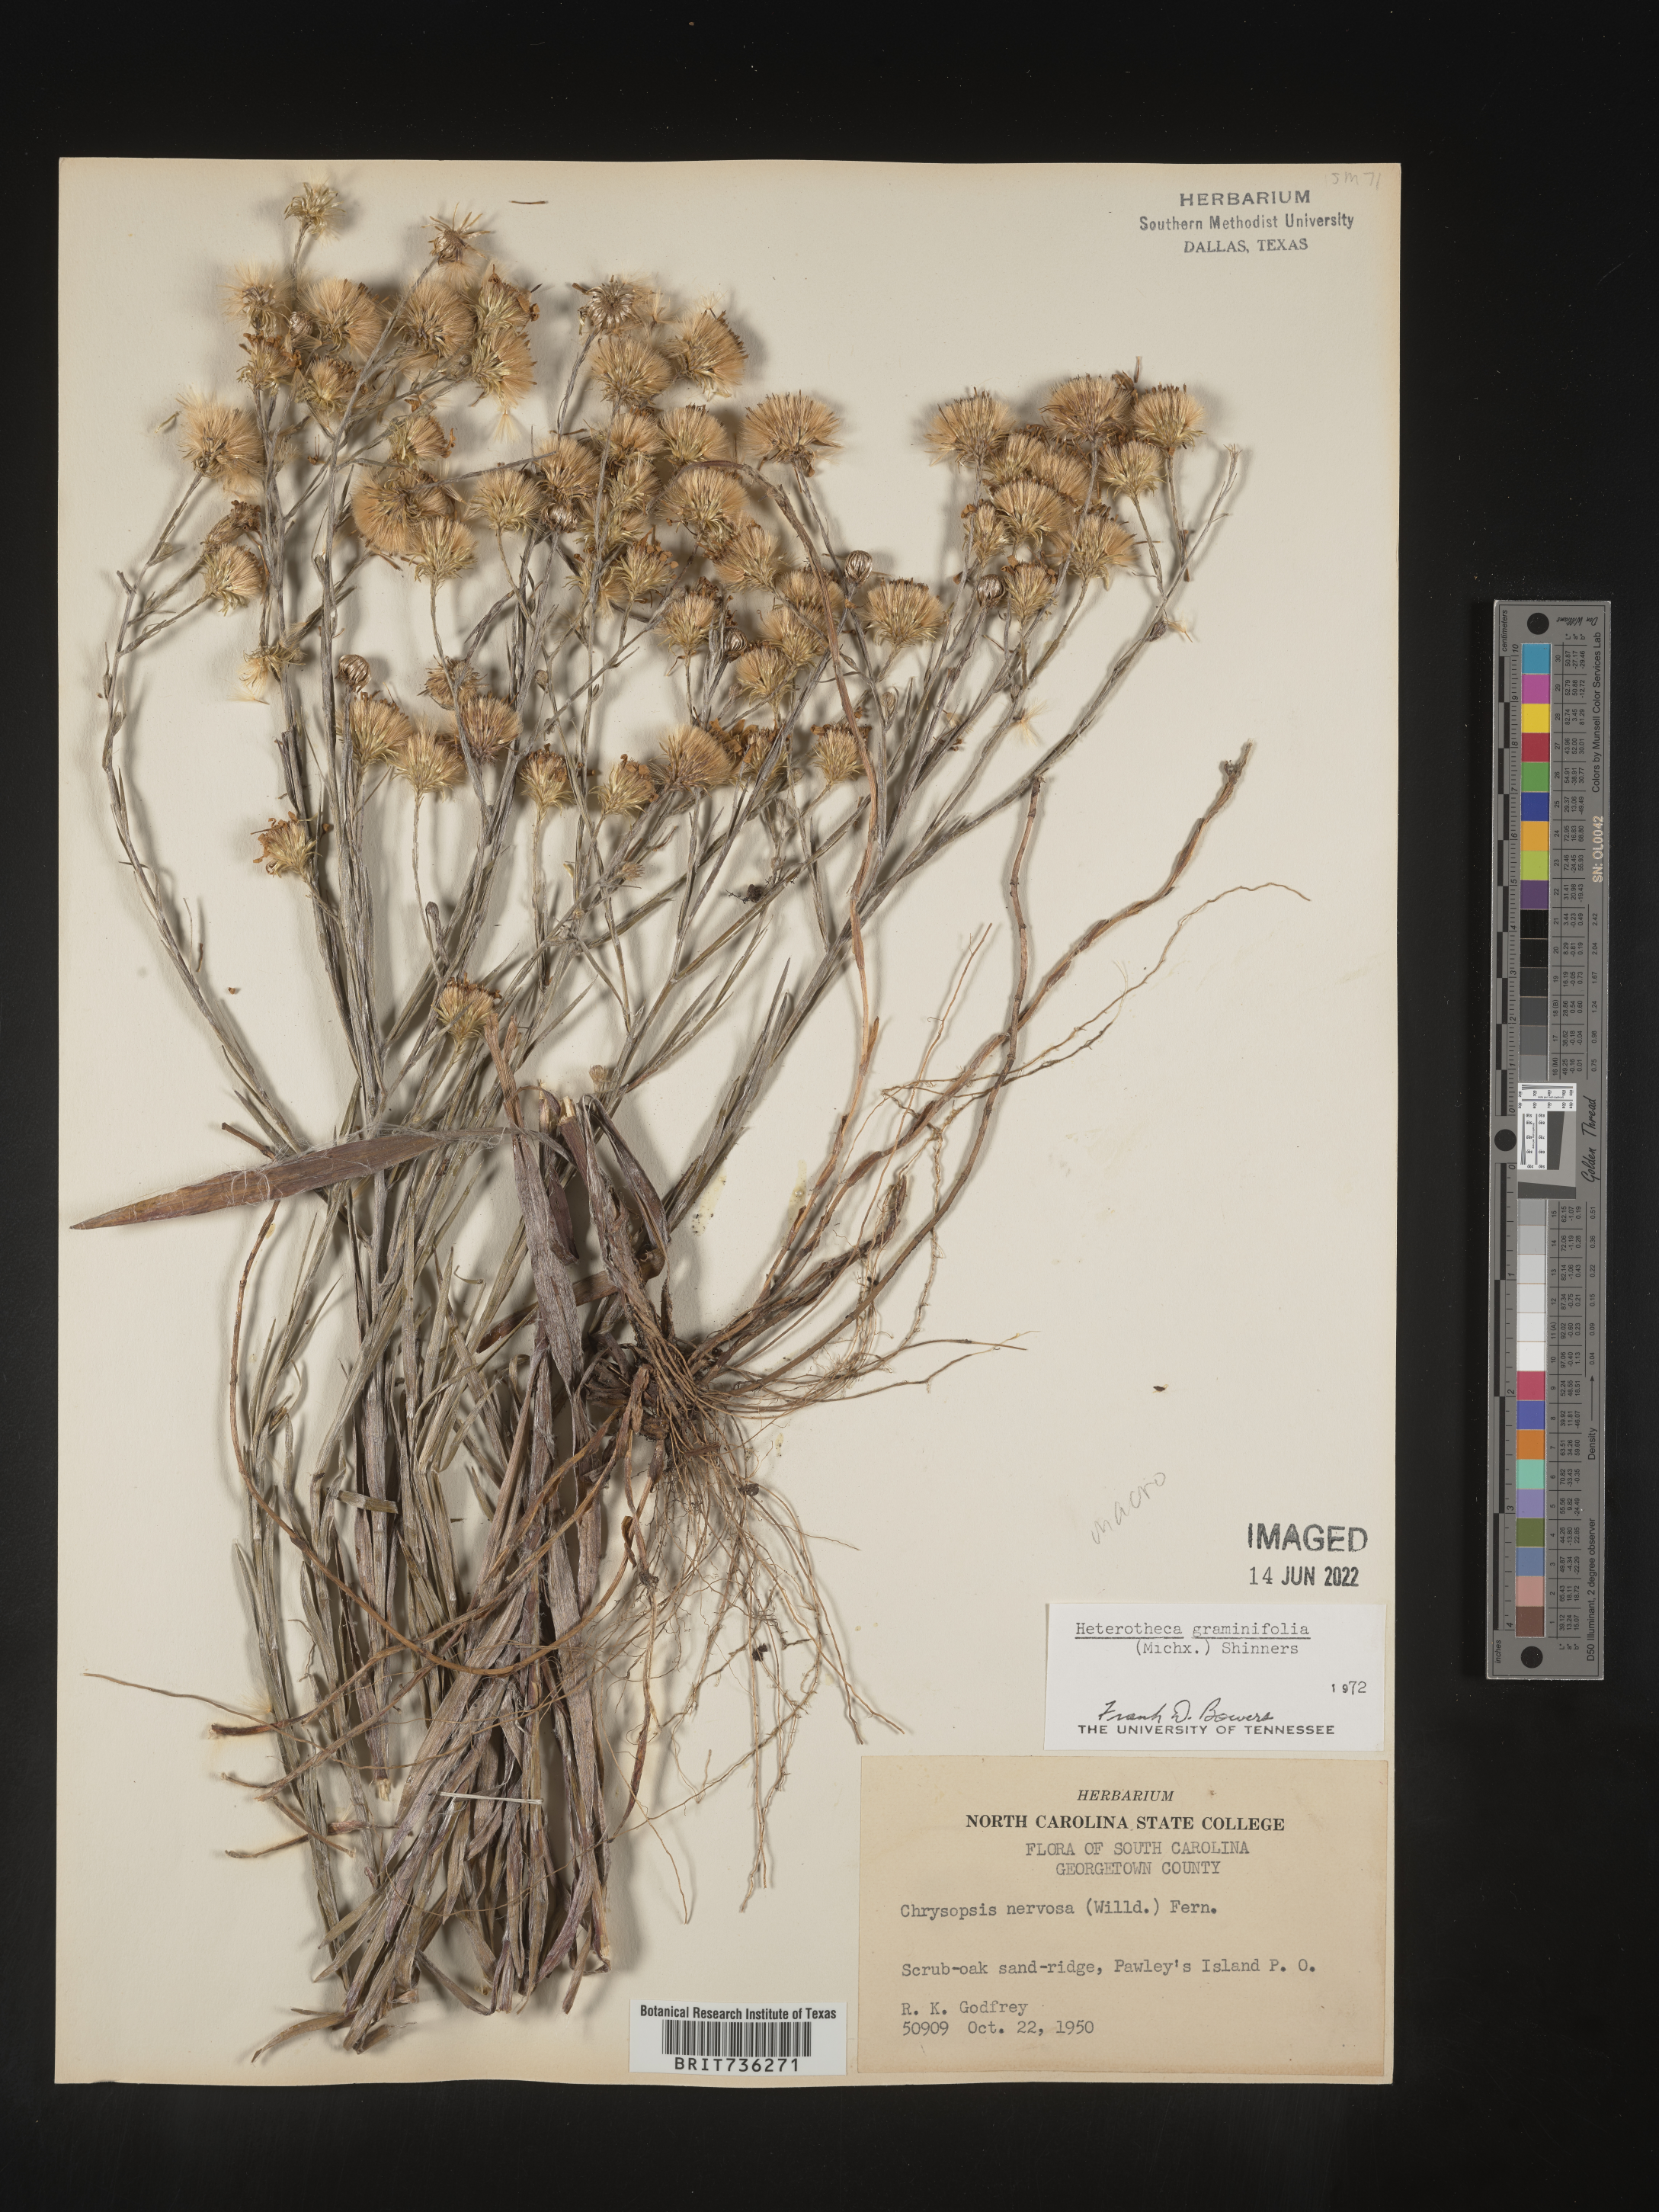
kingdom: Plantae
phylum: Tracheophyta
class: Magnoliopsida
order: Asterales
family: Asteraceae
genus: Pityopsis
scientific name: Pityopsis graminifolia
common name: Grass-leaf golden-aster
